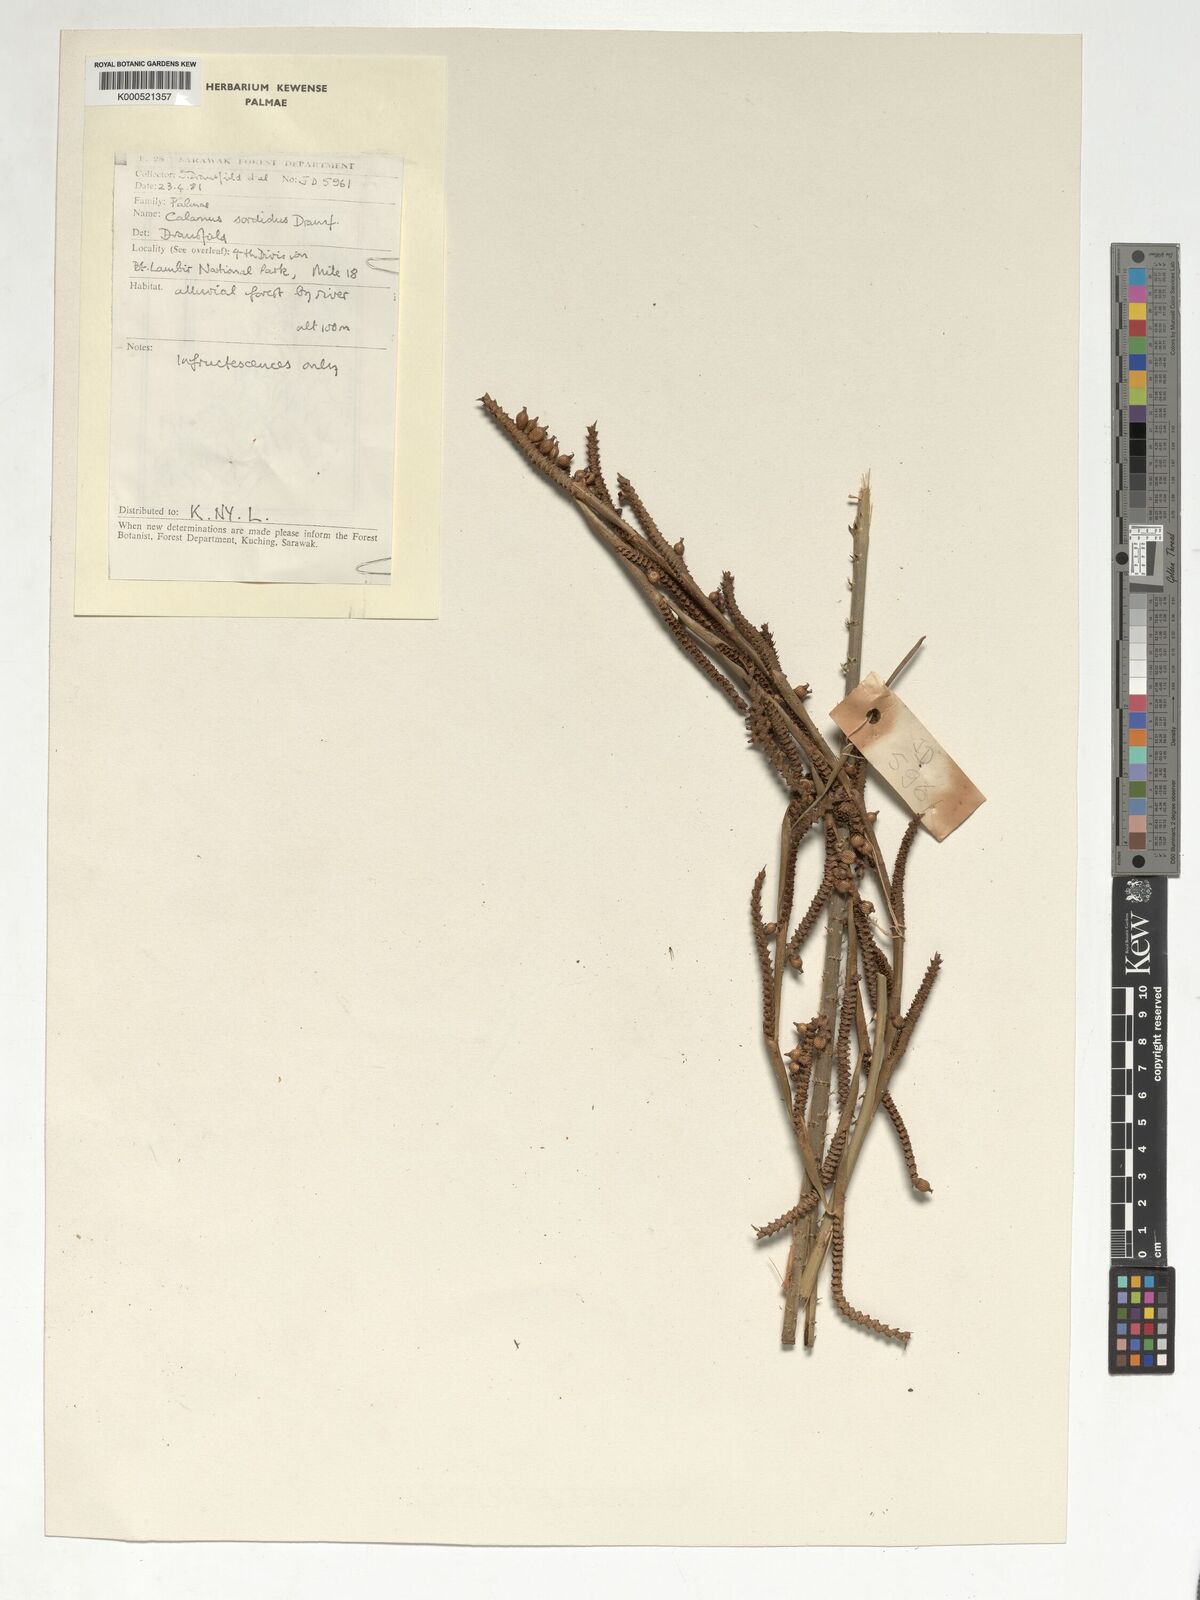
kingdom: Plantae
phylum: Tracheophyta
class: Liliopsida
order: Arecales
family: Arecaceae
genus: Calamus
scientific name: Calamus sordidus
